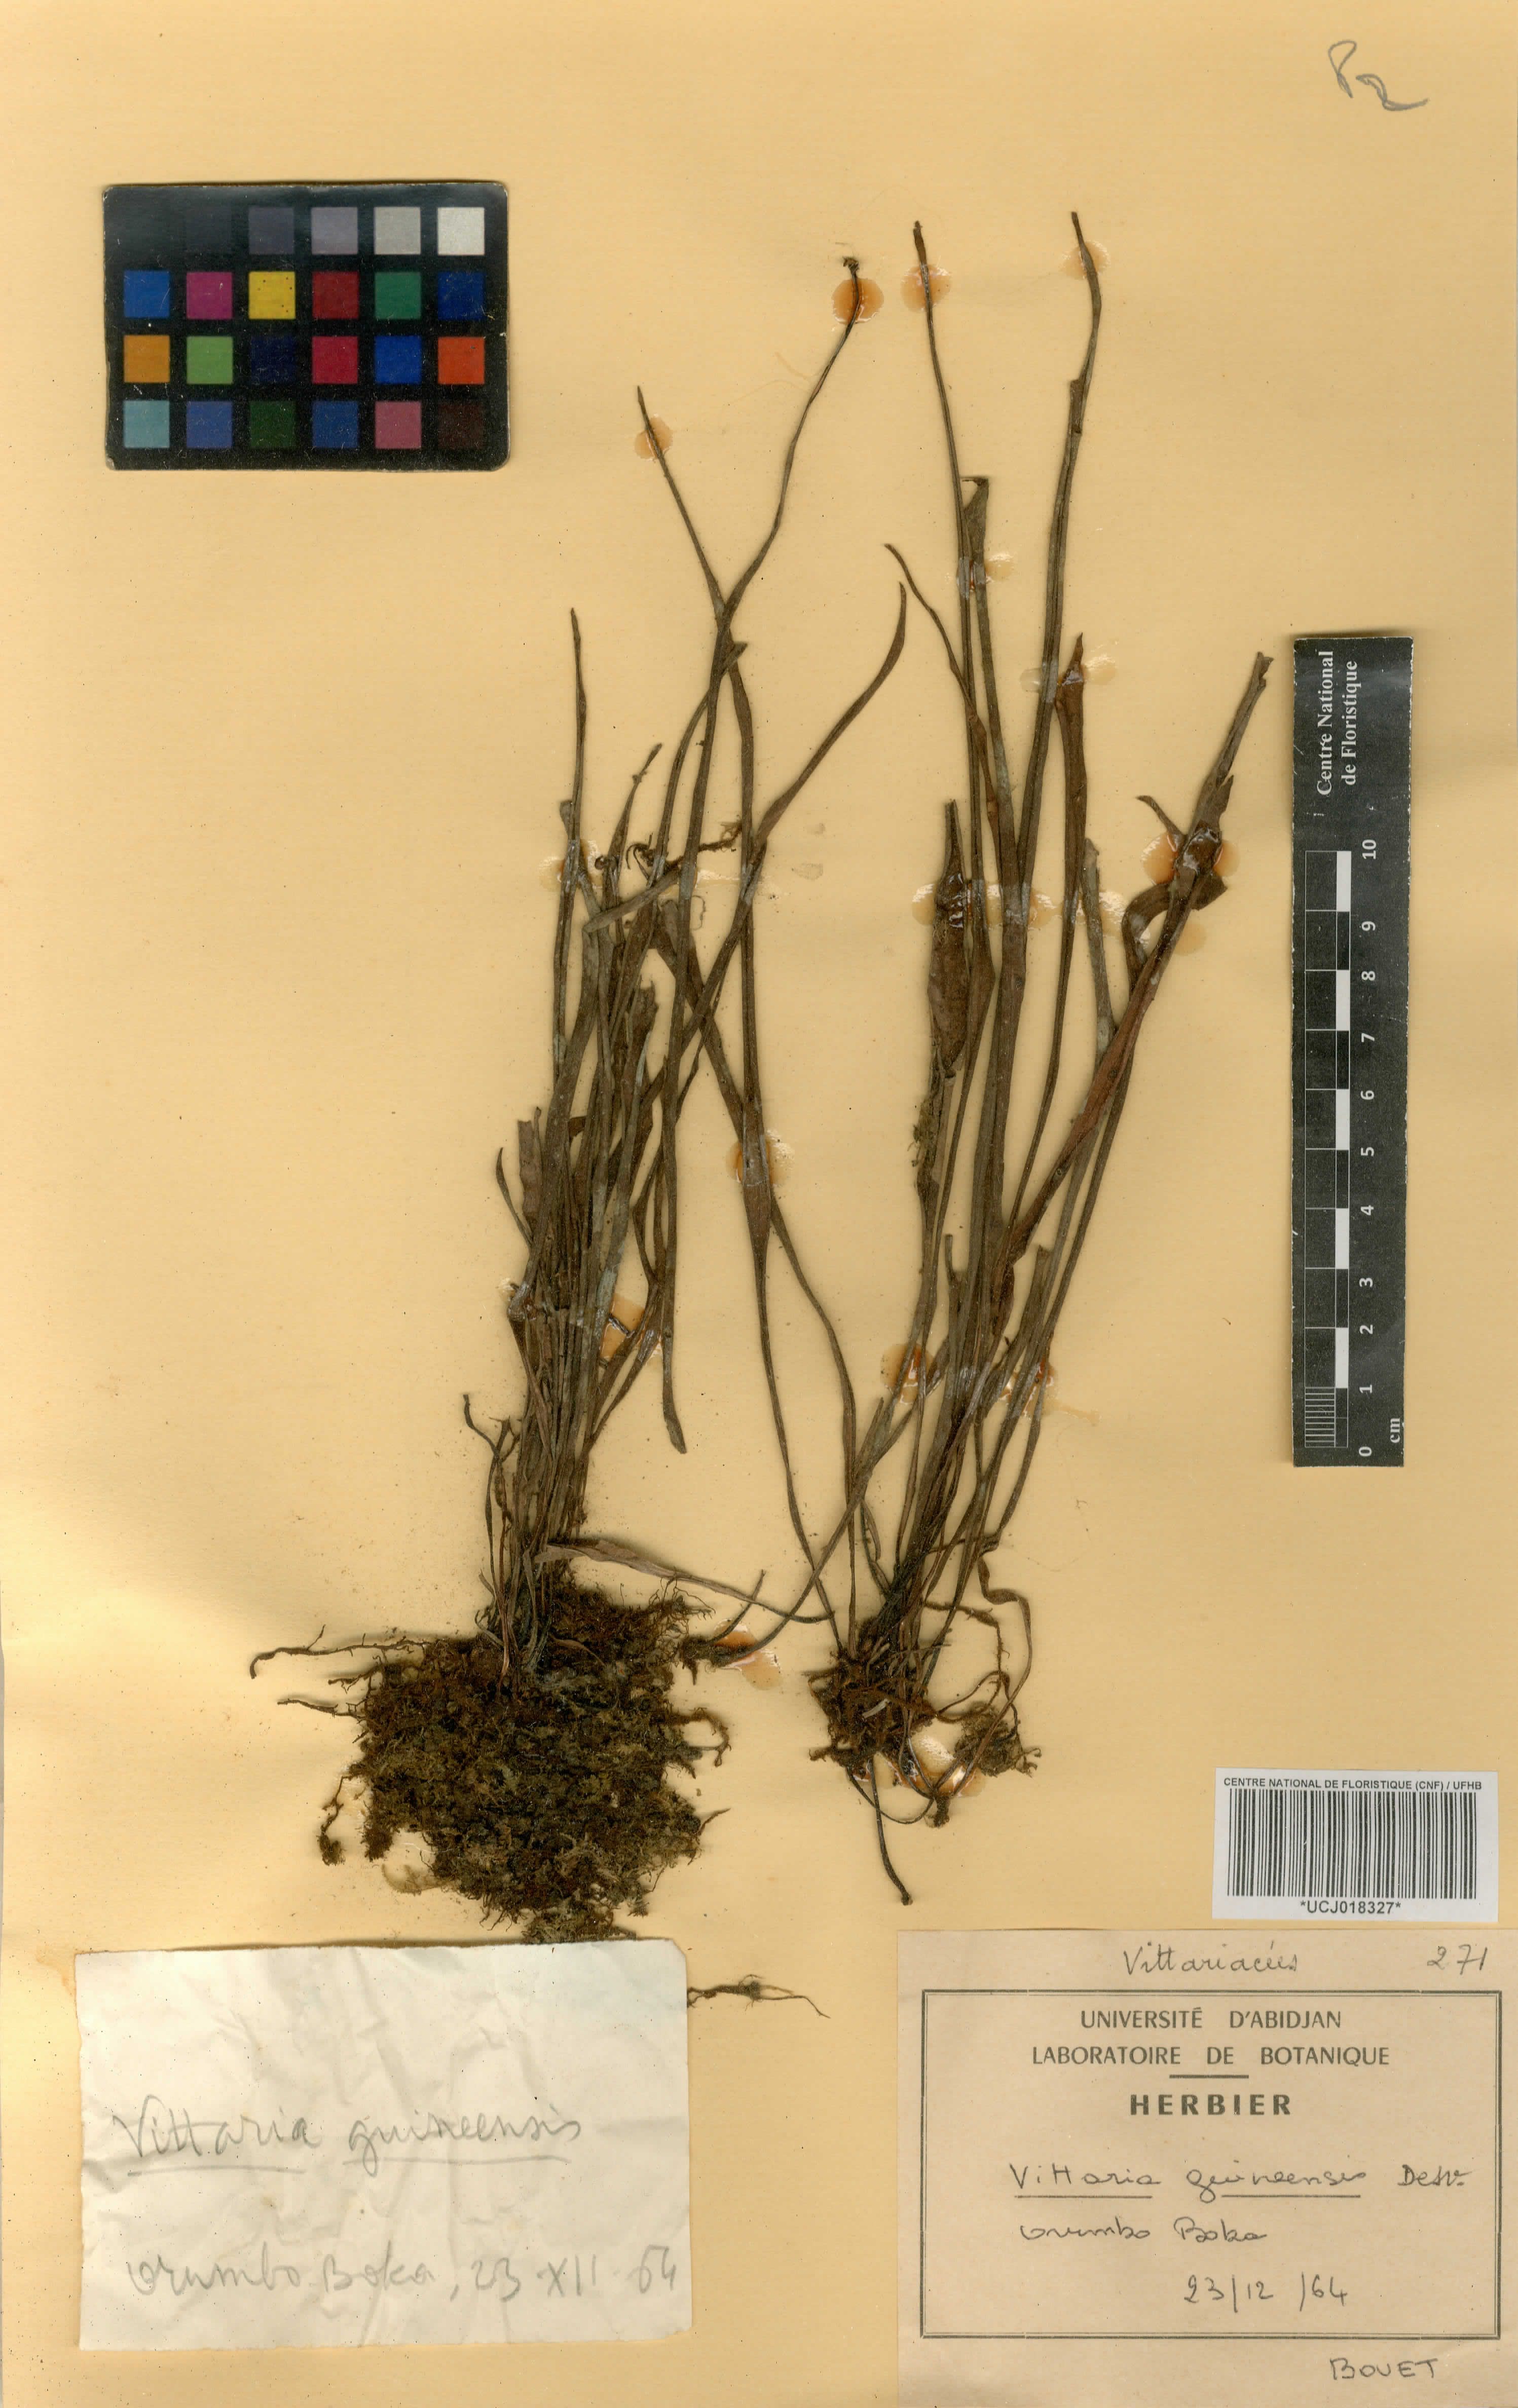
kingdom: Plantae
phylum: Tracheophyta
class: Polypodiopsida
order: Polypodiales
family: Pteridaceae
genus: Haplopteris
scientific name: Haplopteris guineensis
